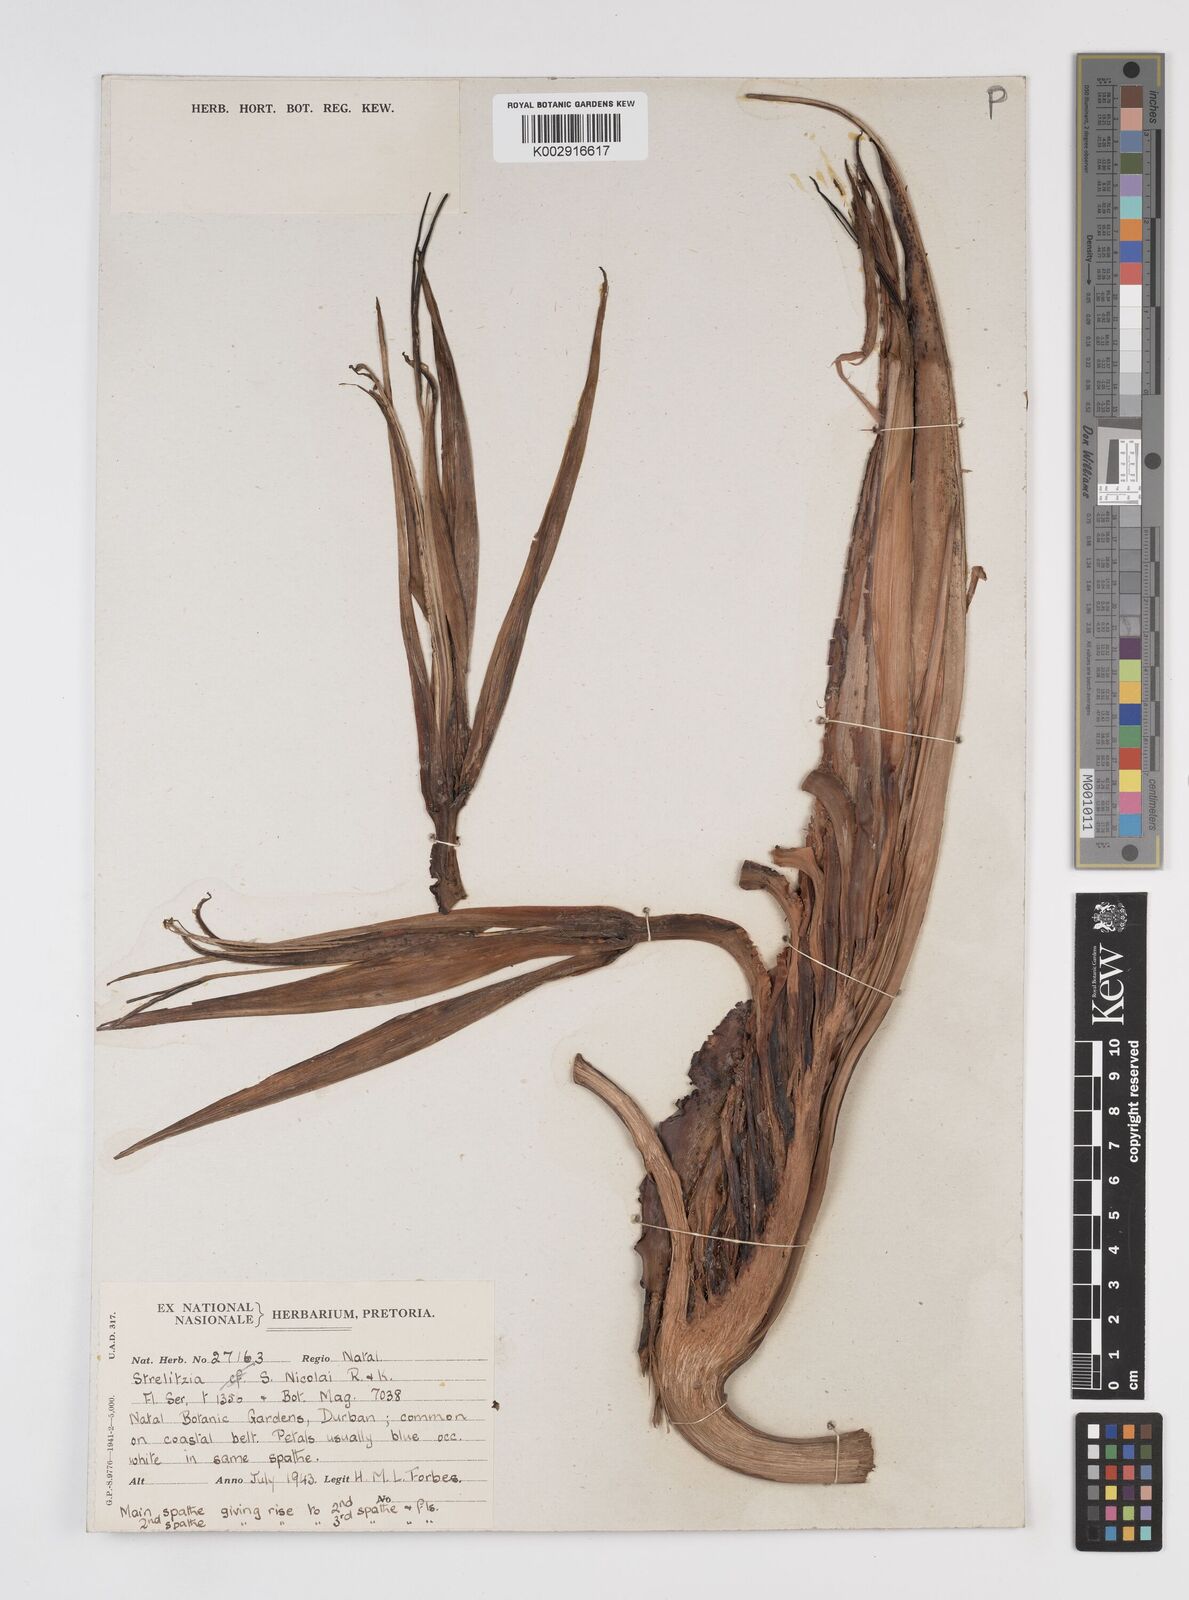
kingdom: Plantae
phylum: Tracheophyta
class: Liliopsida
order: Zingiberales
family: Strelitziaceae
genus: Strelitzia
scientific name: Strelitzia nicolai
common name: Bird-of-paradise tree
